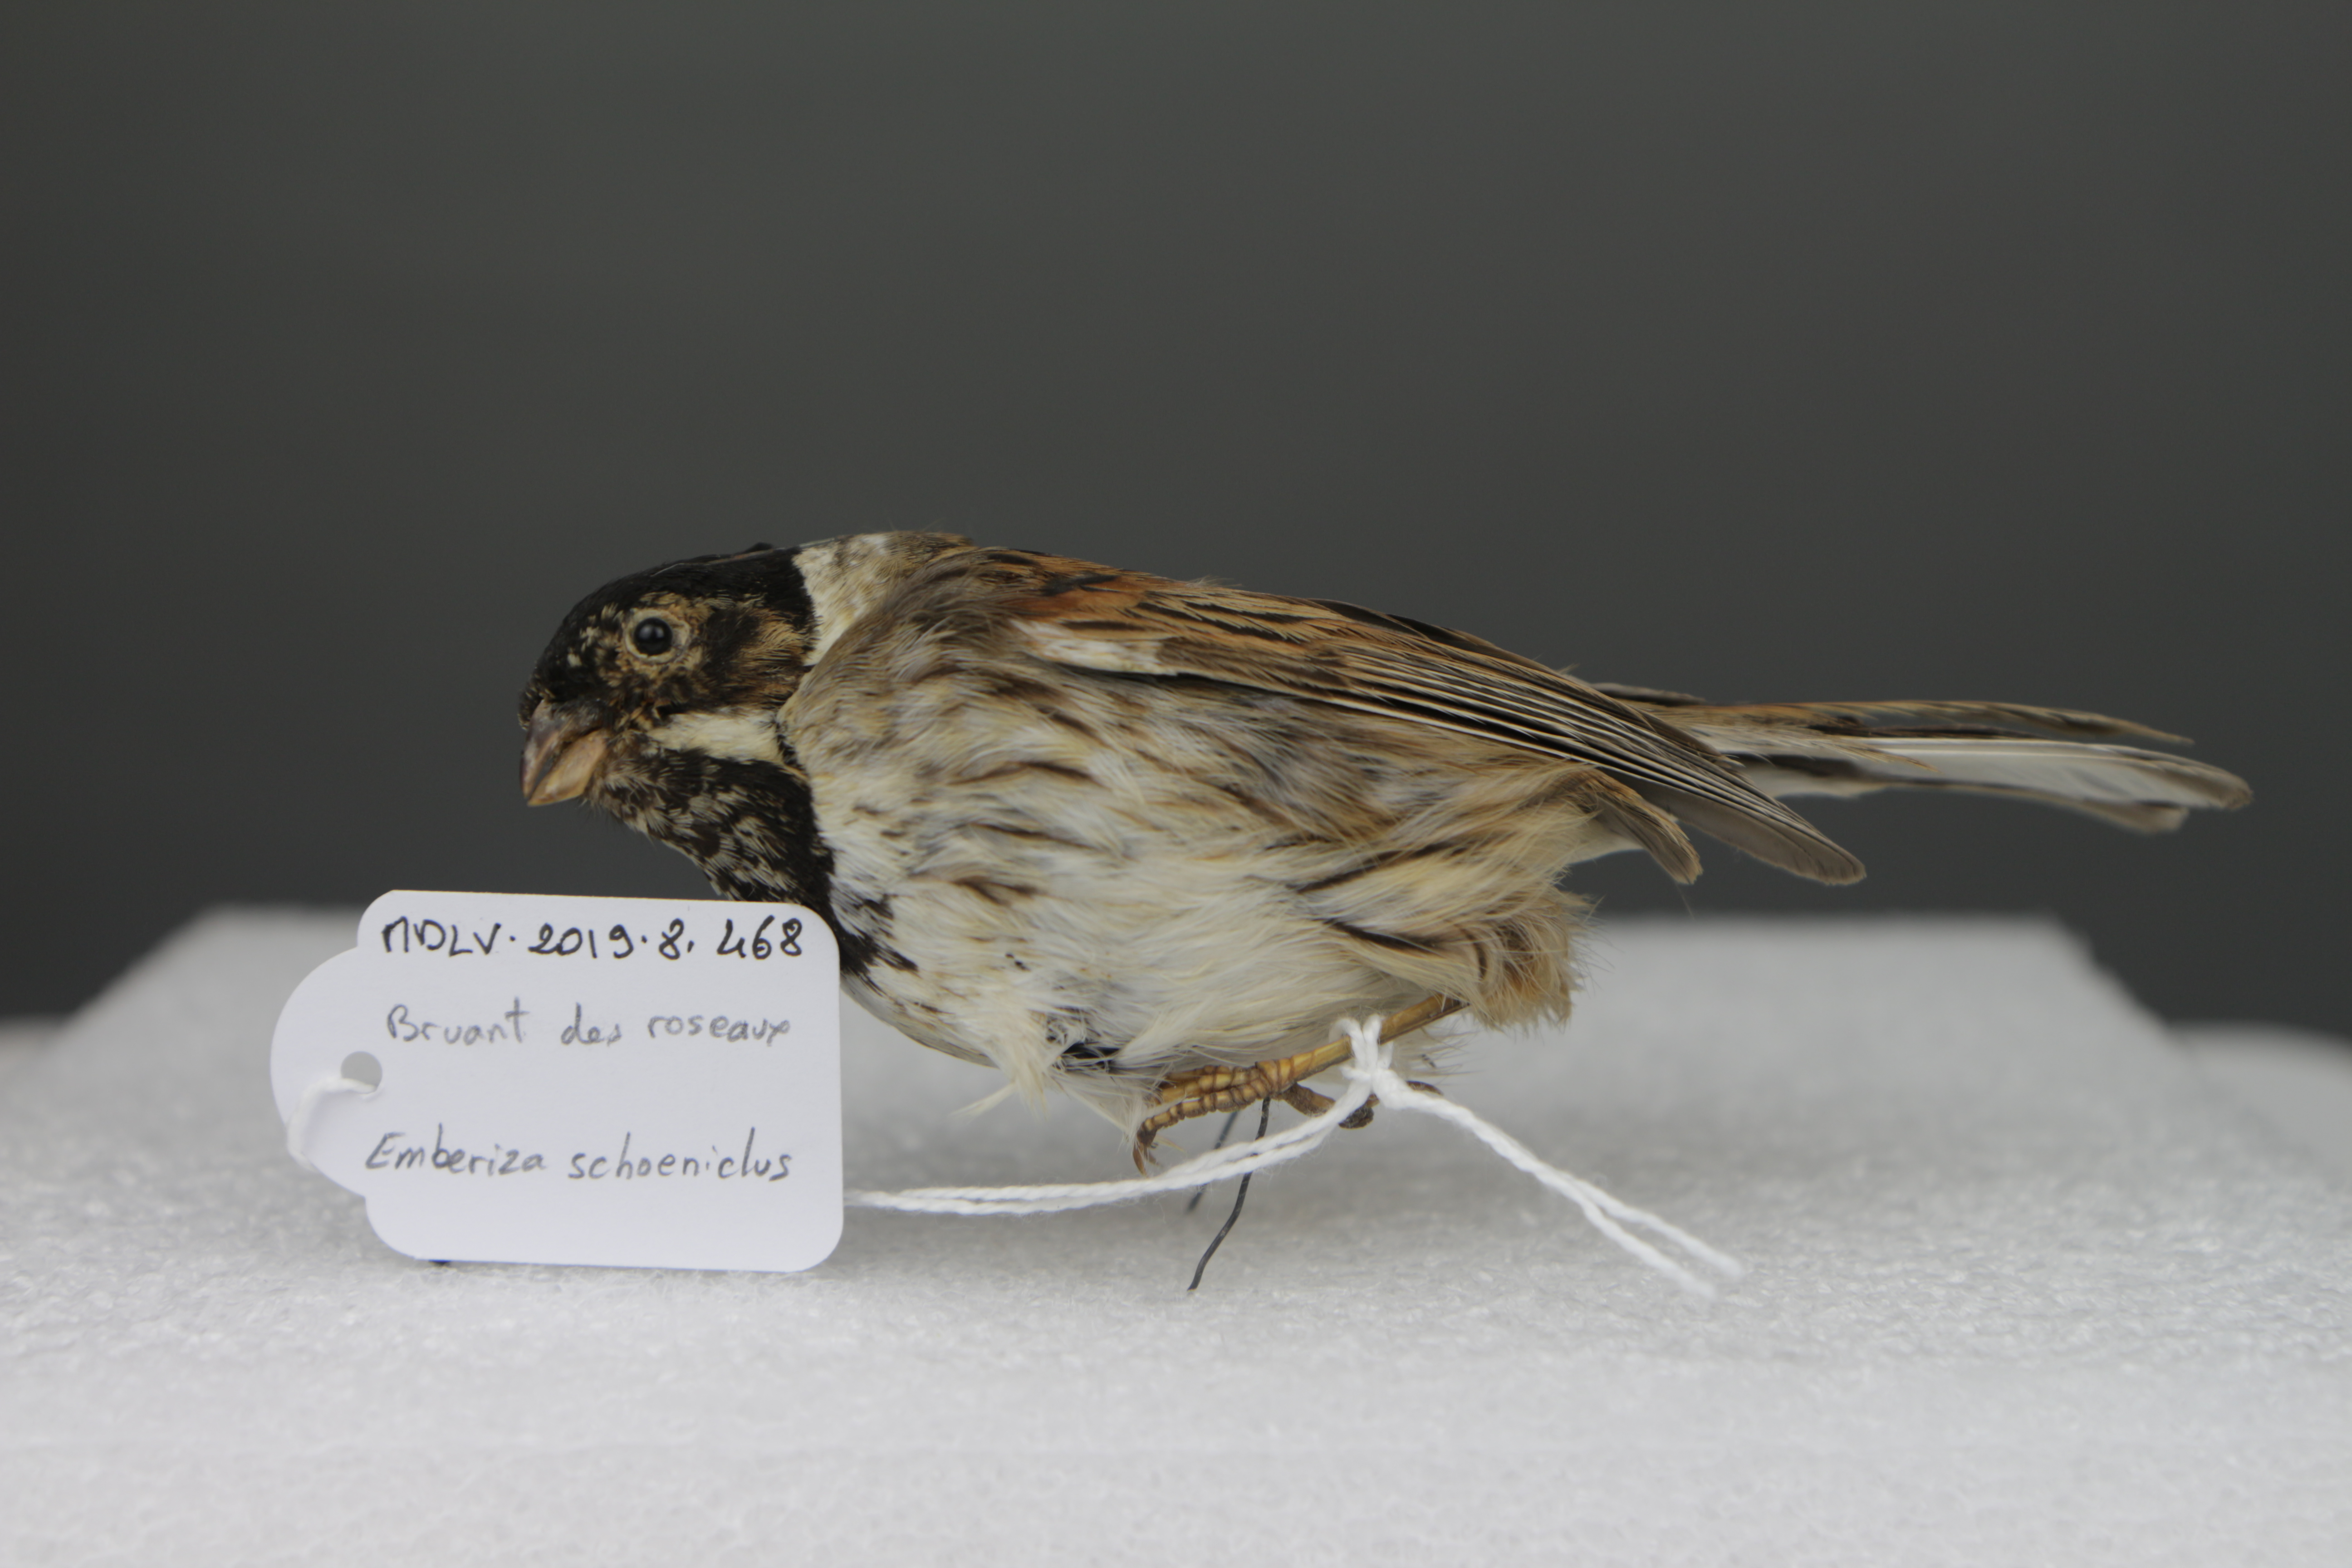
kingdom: Animalia
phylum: Chordata
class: Aves
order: Passeriformes
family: Emberizidae
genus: Emberiza
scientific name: Emberiza schoeniclus
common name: Reed bunting
